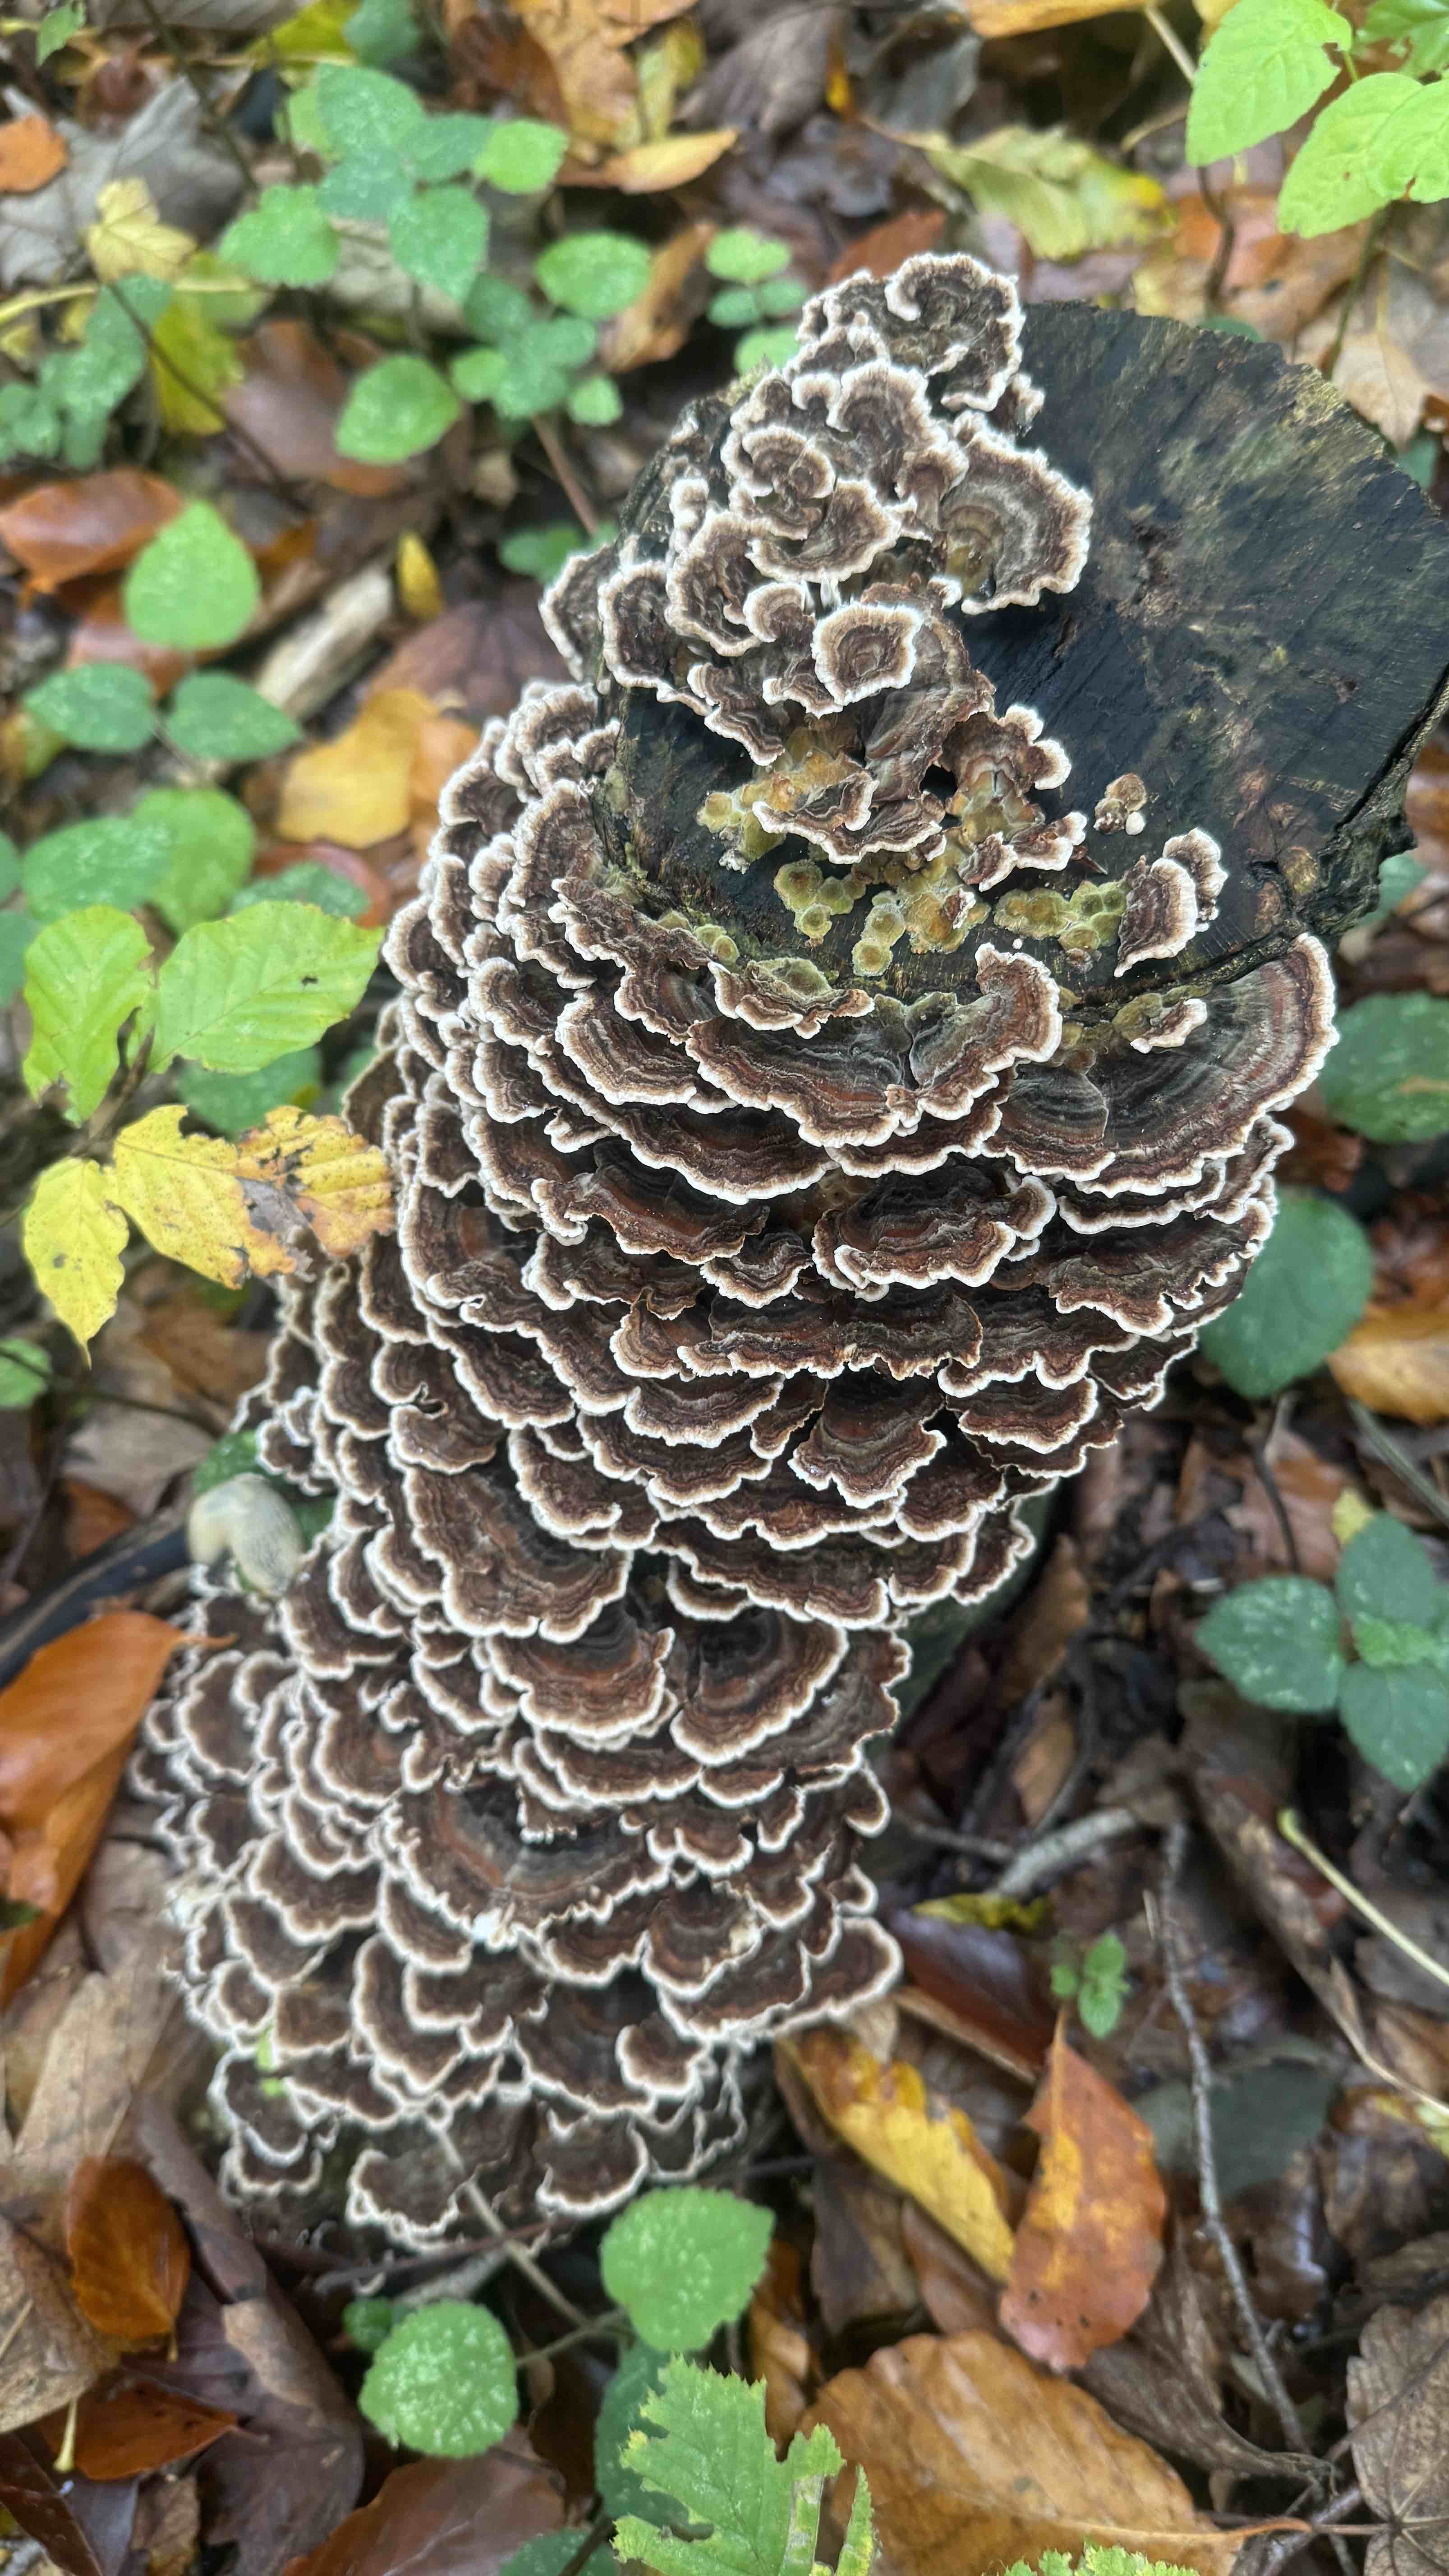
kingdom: Fungi
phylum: Basidiomycota
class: Agaricomycetes
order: Polyporales
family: Polyporaceae
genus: Trametes
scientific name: Trametes versicolor
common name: broget læderporesvamp
